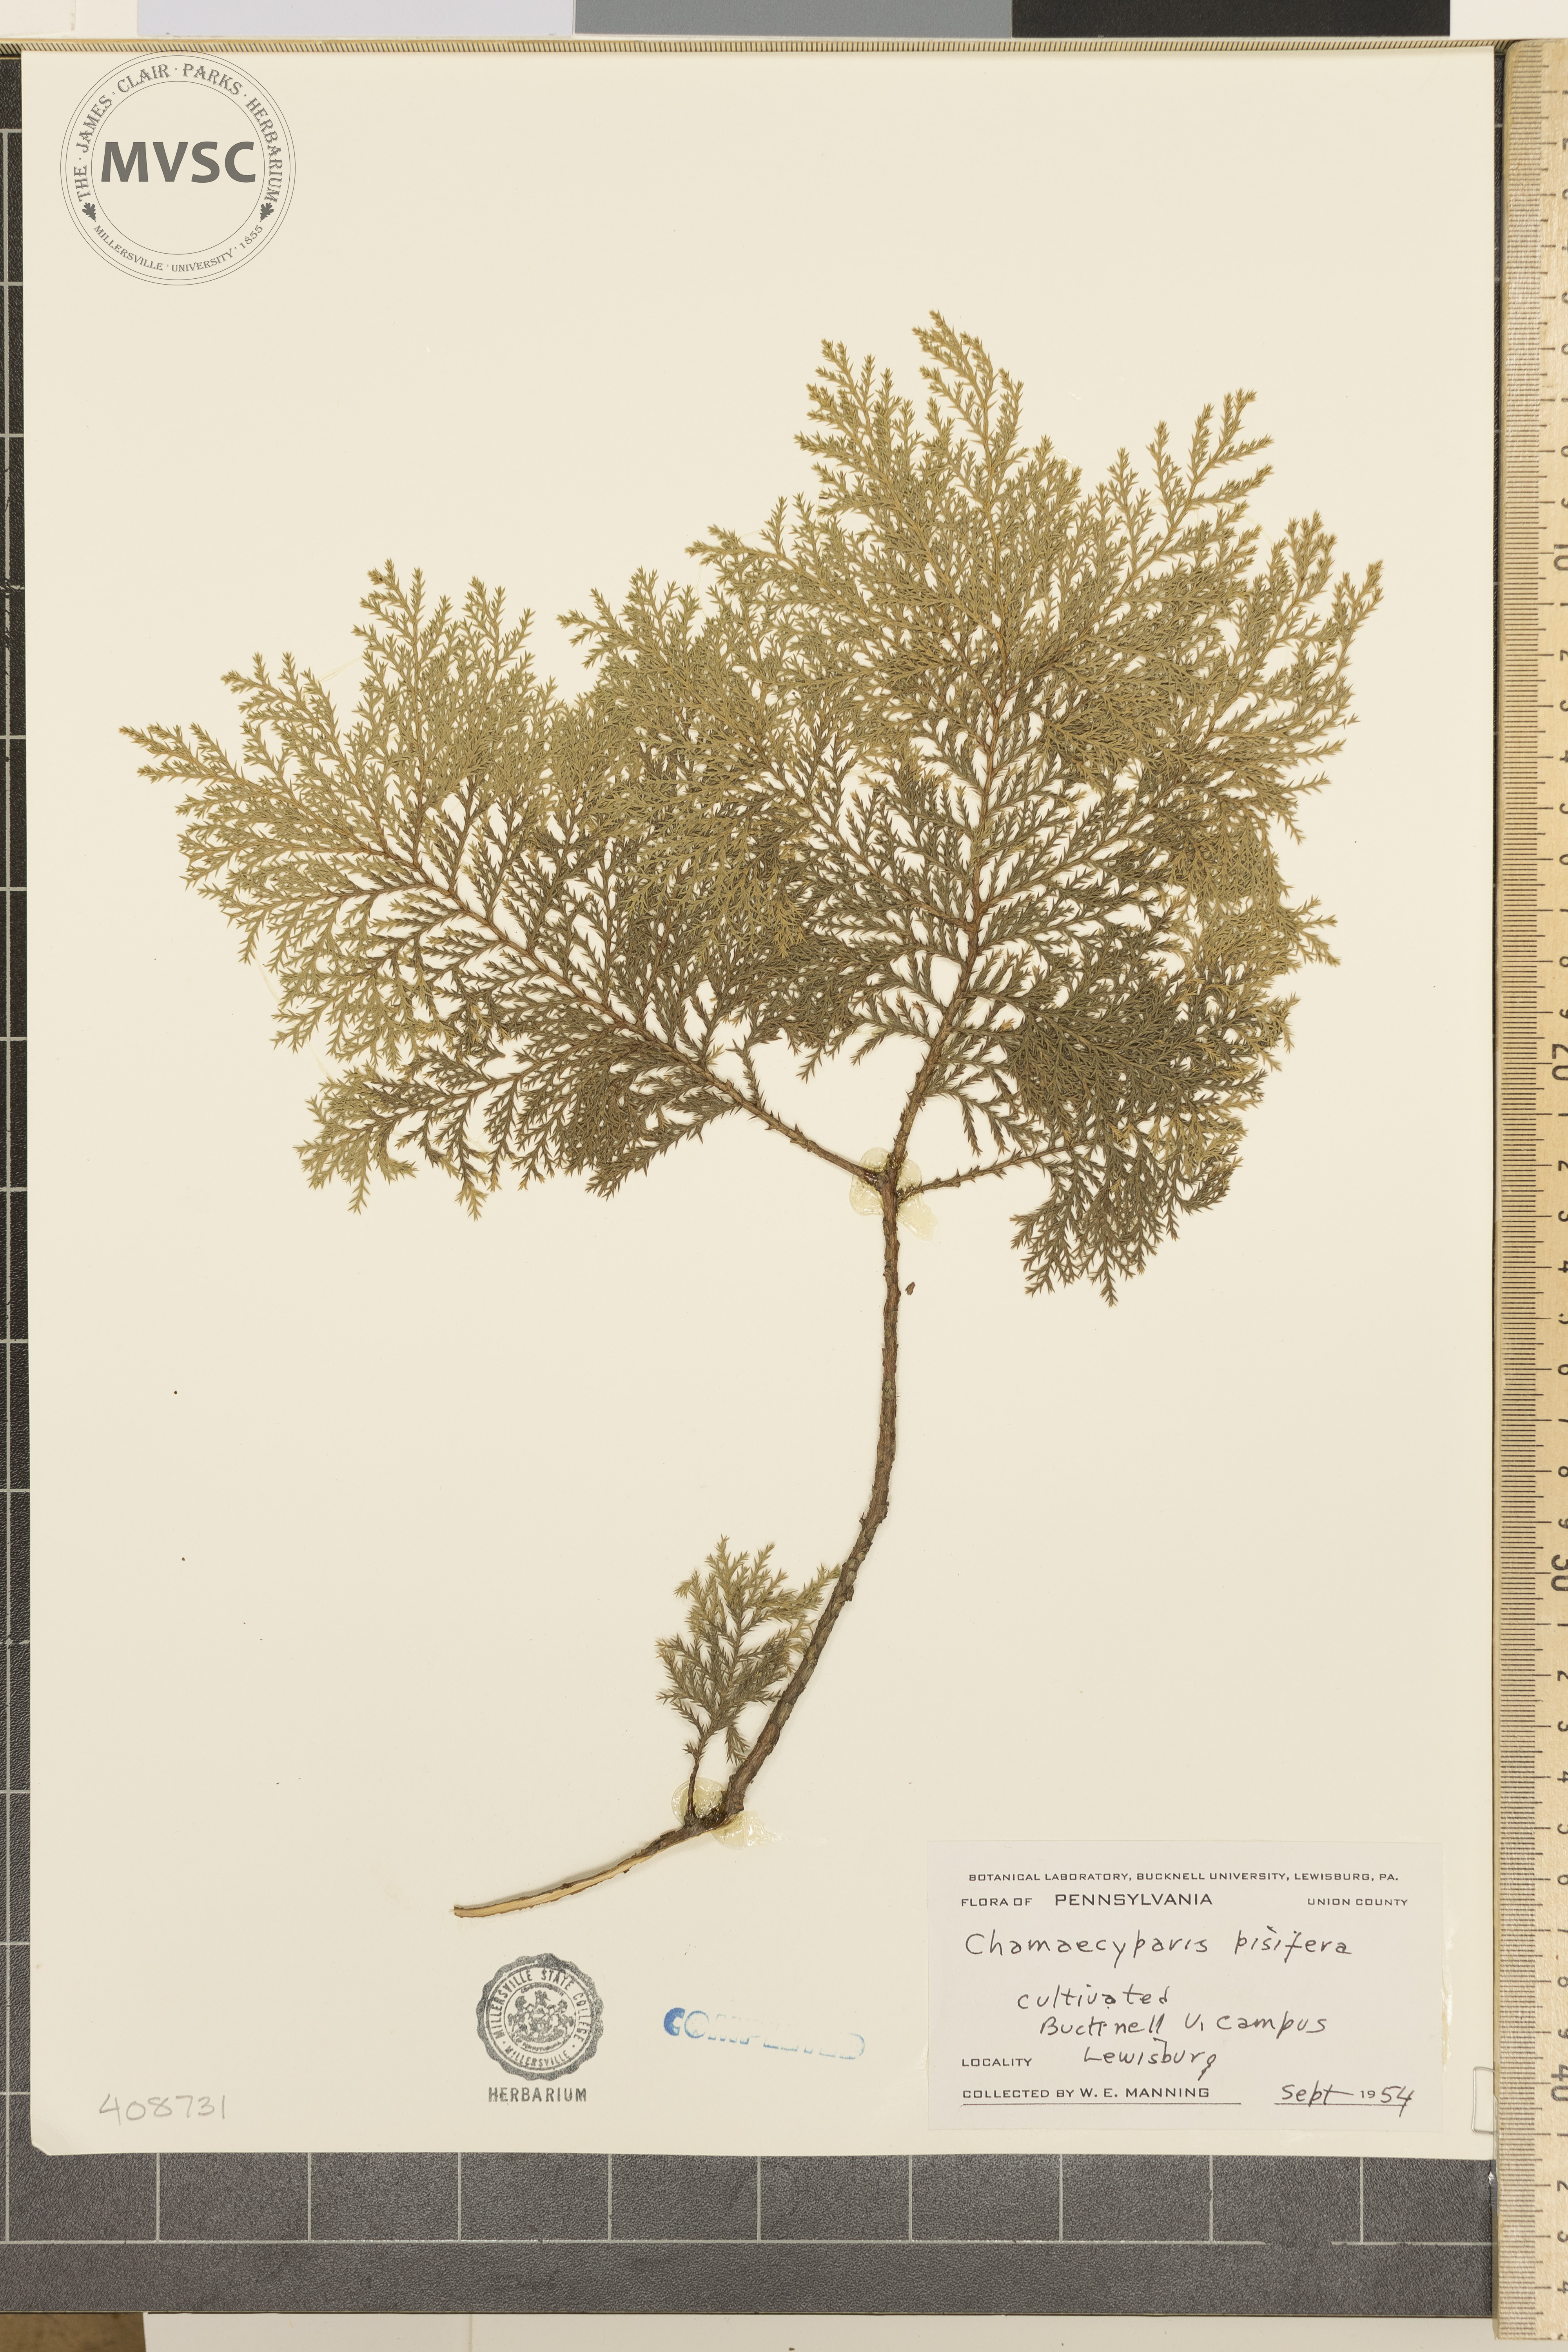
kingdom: Plantae
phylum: Tracheophyta
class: Pinopsida
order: Pinales
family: Cupressaceae
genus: Chamaecyparis
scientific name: Chamaecyparis pisifera
